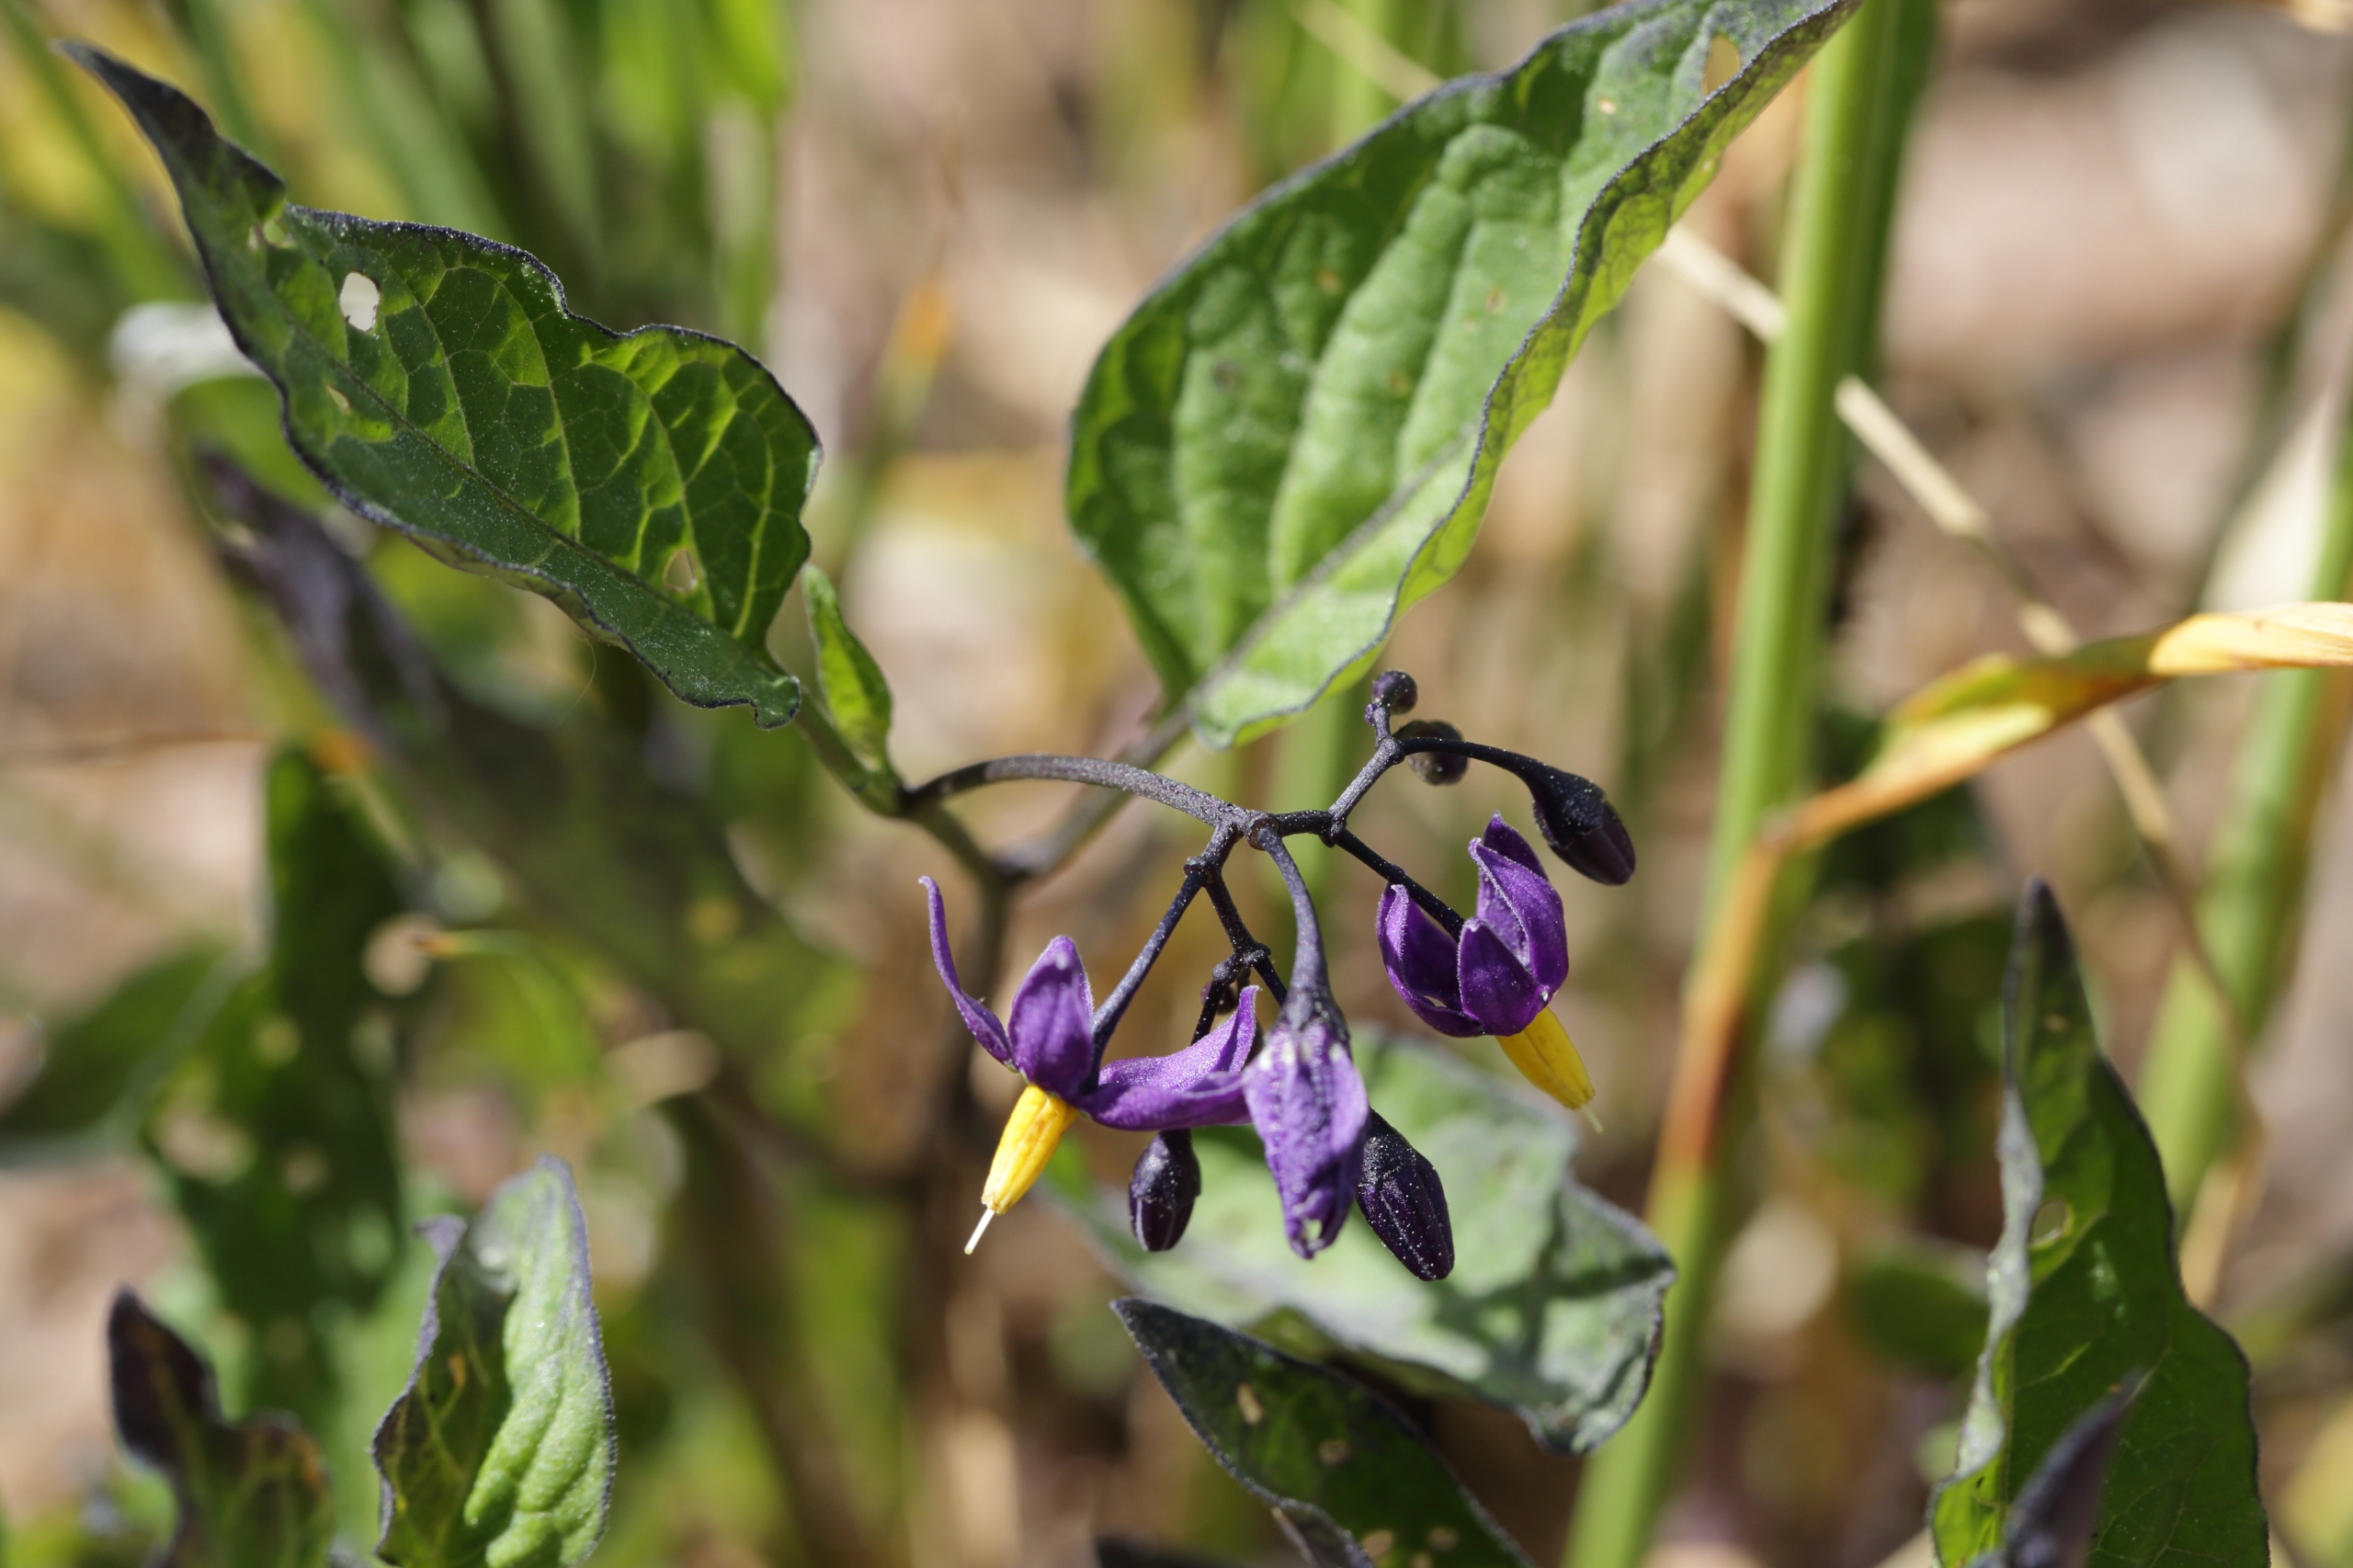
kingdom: Plantae
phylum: Tracheophyta
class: Magnoliopsida
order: Solanales
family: Solanaceae
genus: Solanum
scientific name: Solanum dulcamara
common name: Bittersød natskygge
